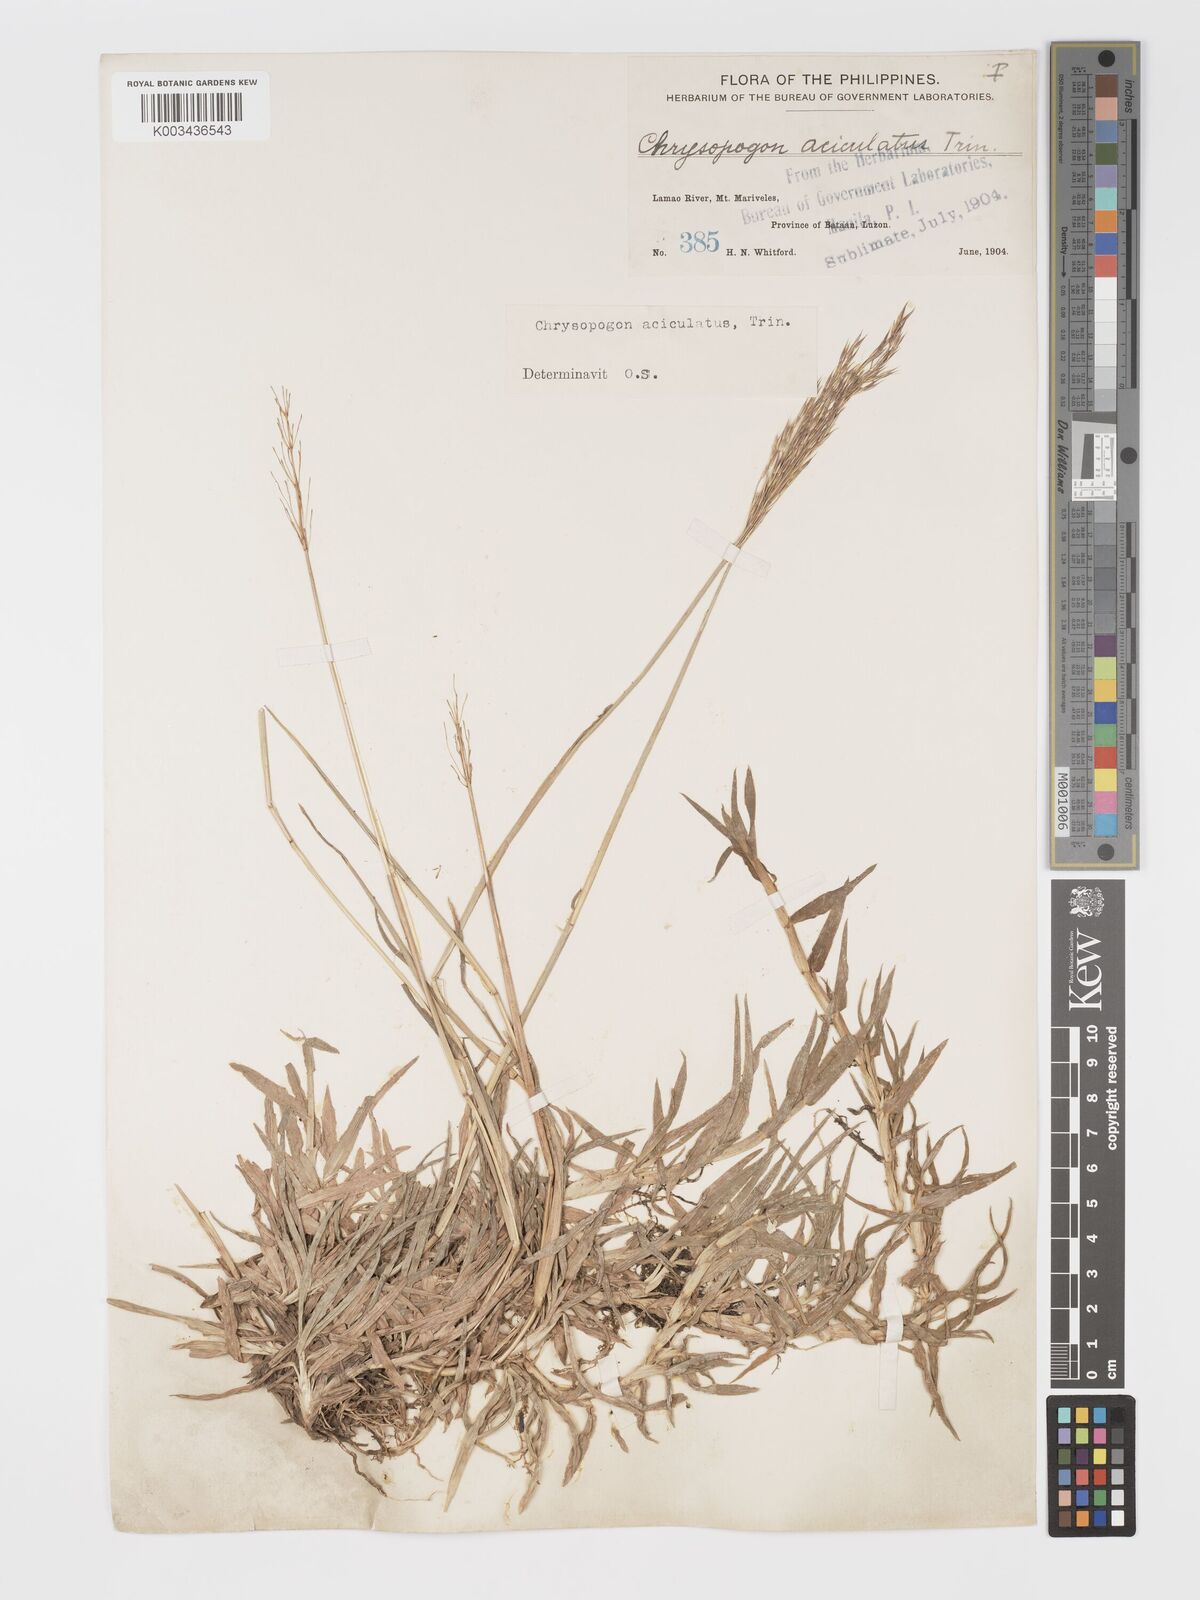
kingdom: Plantae
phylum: Tracheophyta
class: Liliopsida
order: Poales
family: Poaceae
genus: Chrysopogon
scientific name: Chrysopogon aciculatus
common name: Pilipiliula
